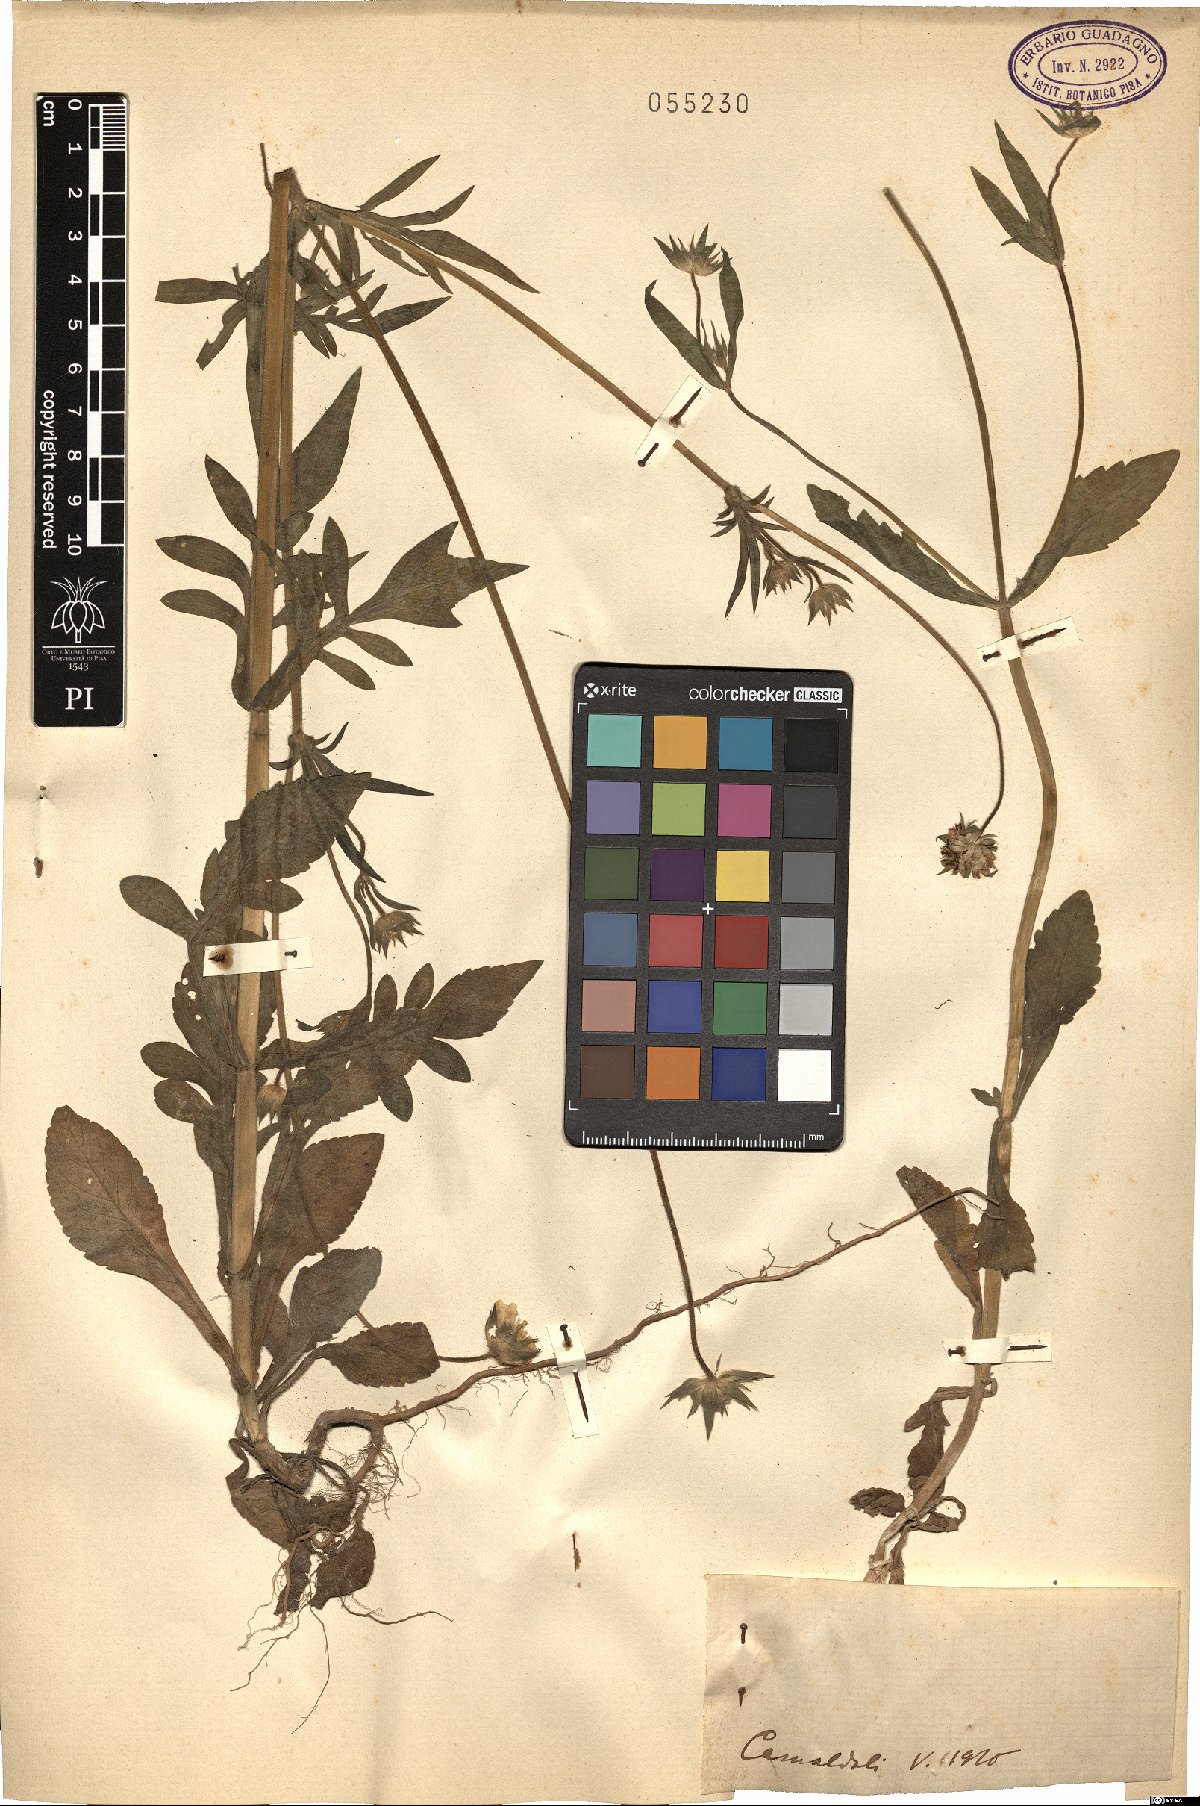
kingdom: Plantae
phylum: Tracheophyta
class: Magnoliopsida
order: Dipsacales
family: Caprifoliaceae
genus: Knautia
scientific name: Knautia
